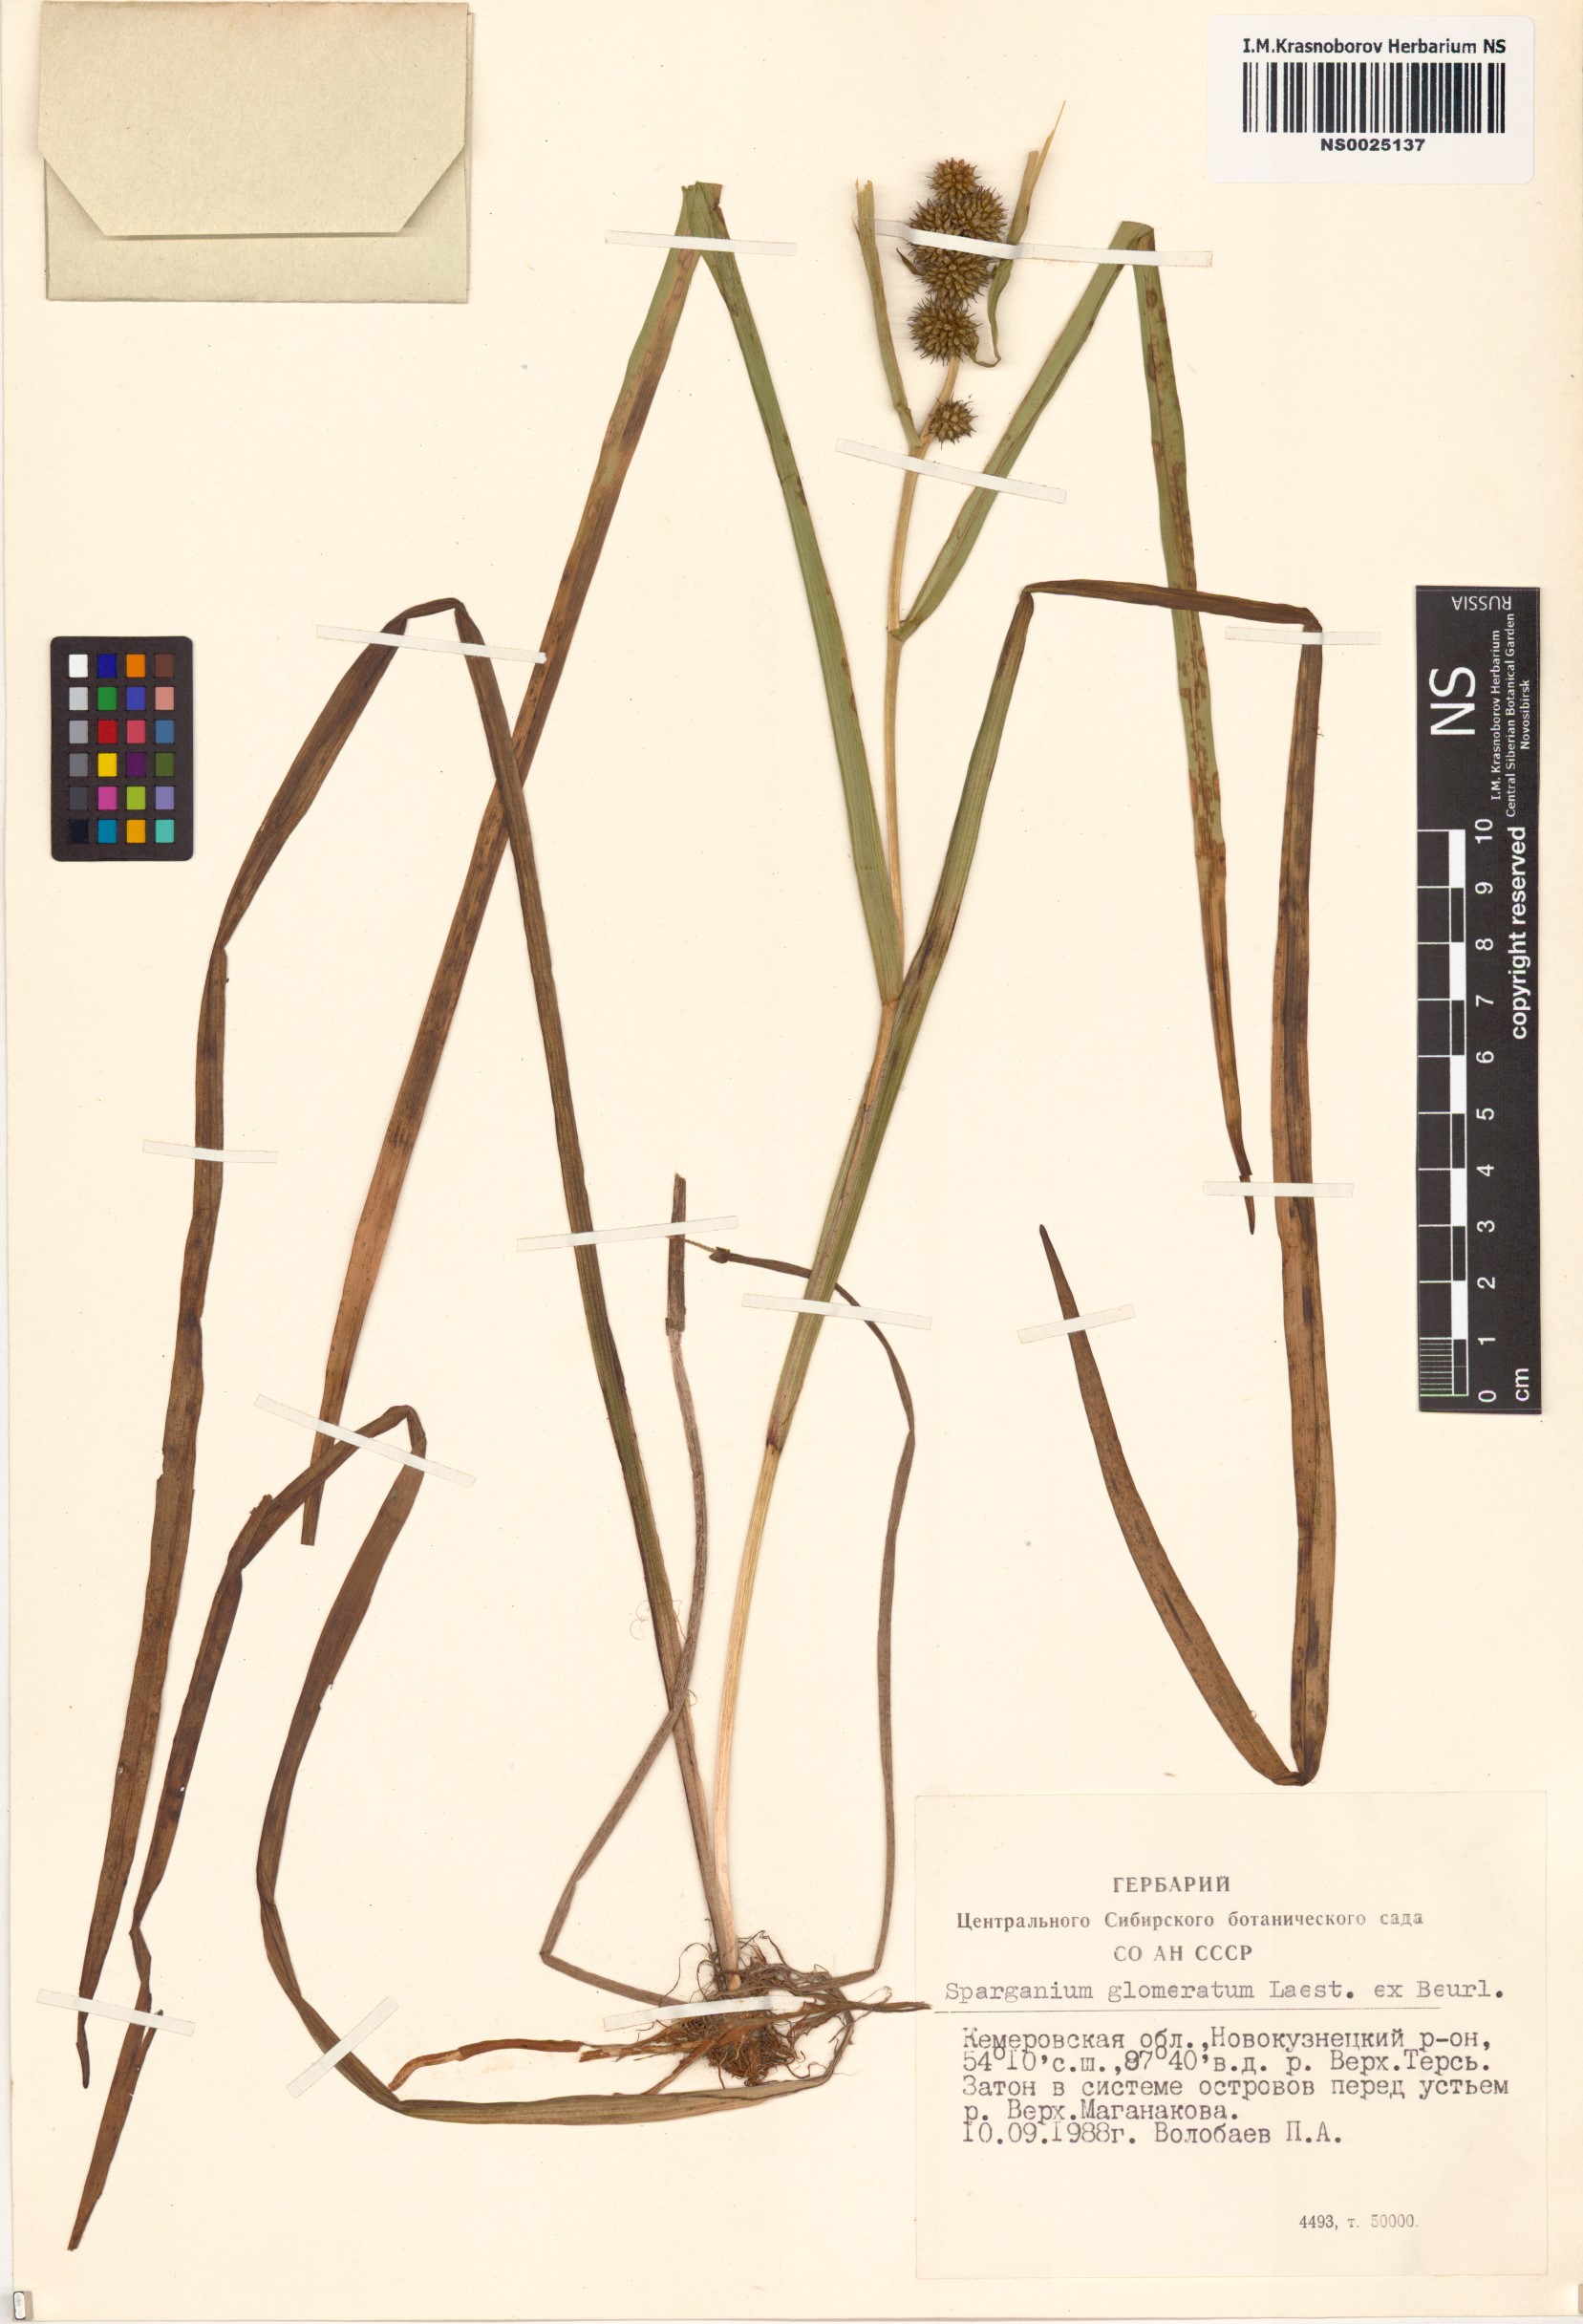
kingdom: Plantae
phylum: Tracheophyta
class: Liliopsida
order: Poales
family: Typhaceae
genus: Sparganium
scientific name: Sparganium glomeratum
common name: Clustered burreed
